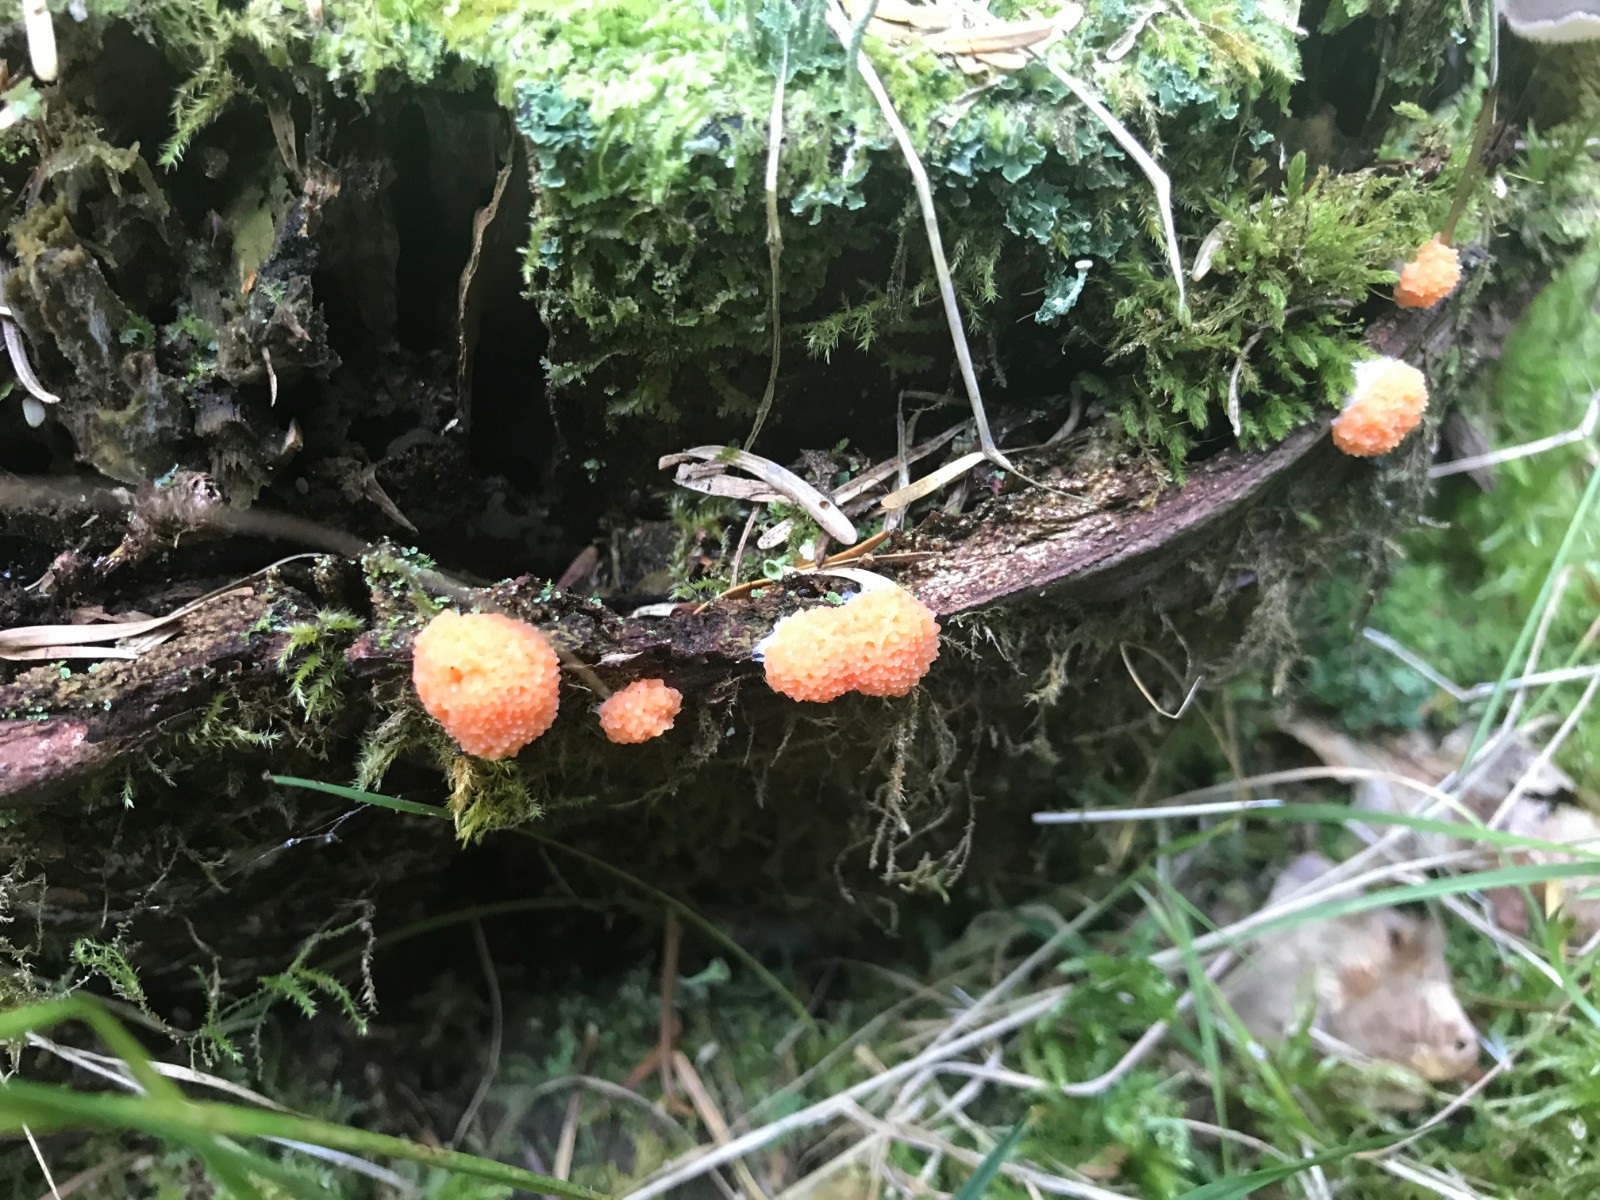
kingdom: Protozoa
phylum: Mycetozoa
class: Myxomycetes
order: Cribrariales
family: Tubiferaceae
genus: Tubifera
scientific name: Tubifera ferruginosa
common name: kanel-støvrør
